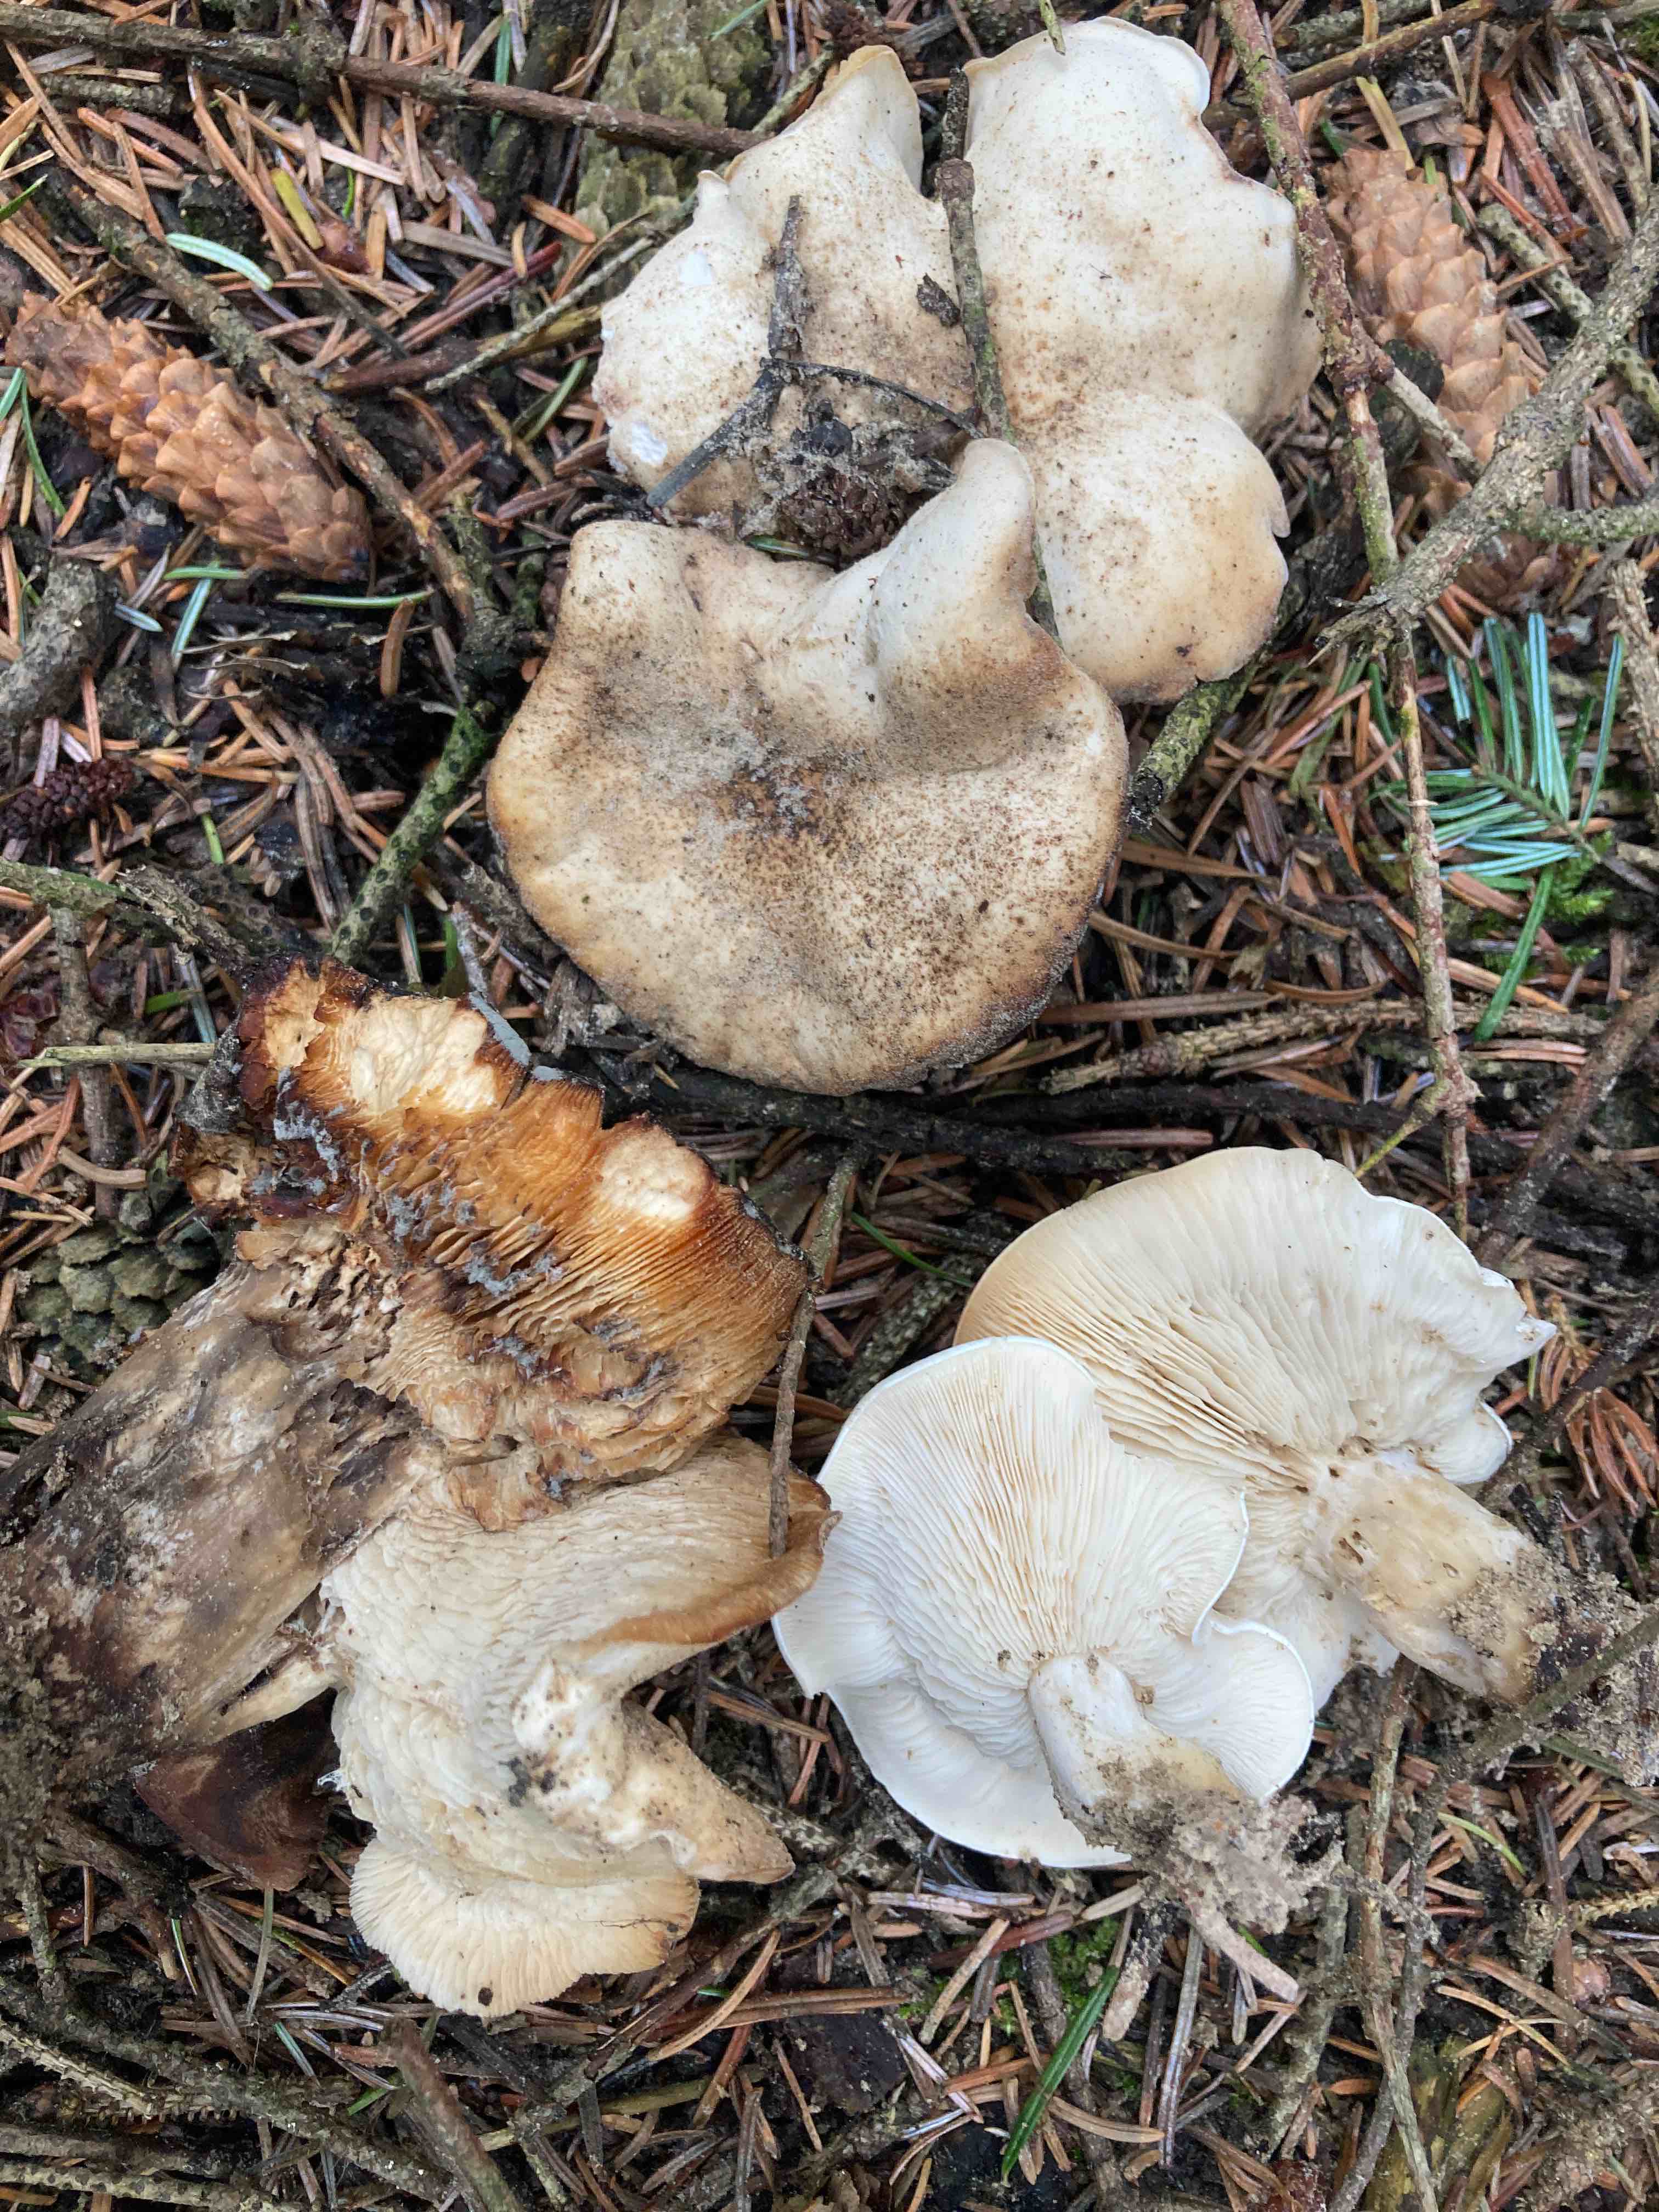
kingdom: Fungi
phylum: Basidiomycota
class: Agaricomycetes
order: Agaricales
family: Lyophyllaceae
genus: Calocybe
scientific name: Calocybe gambosa
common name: vårmusseron
